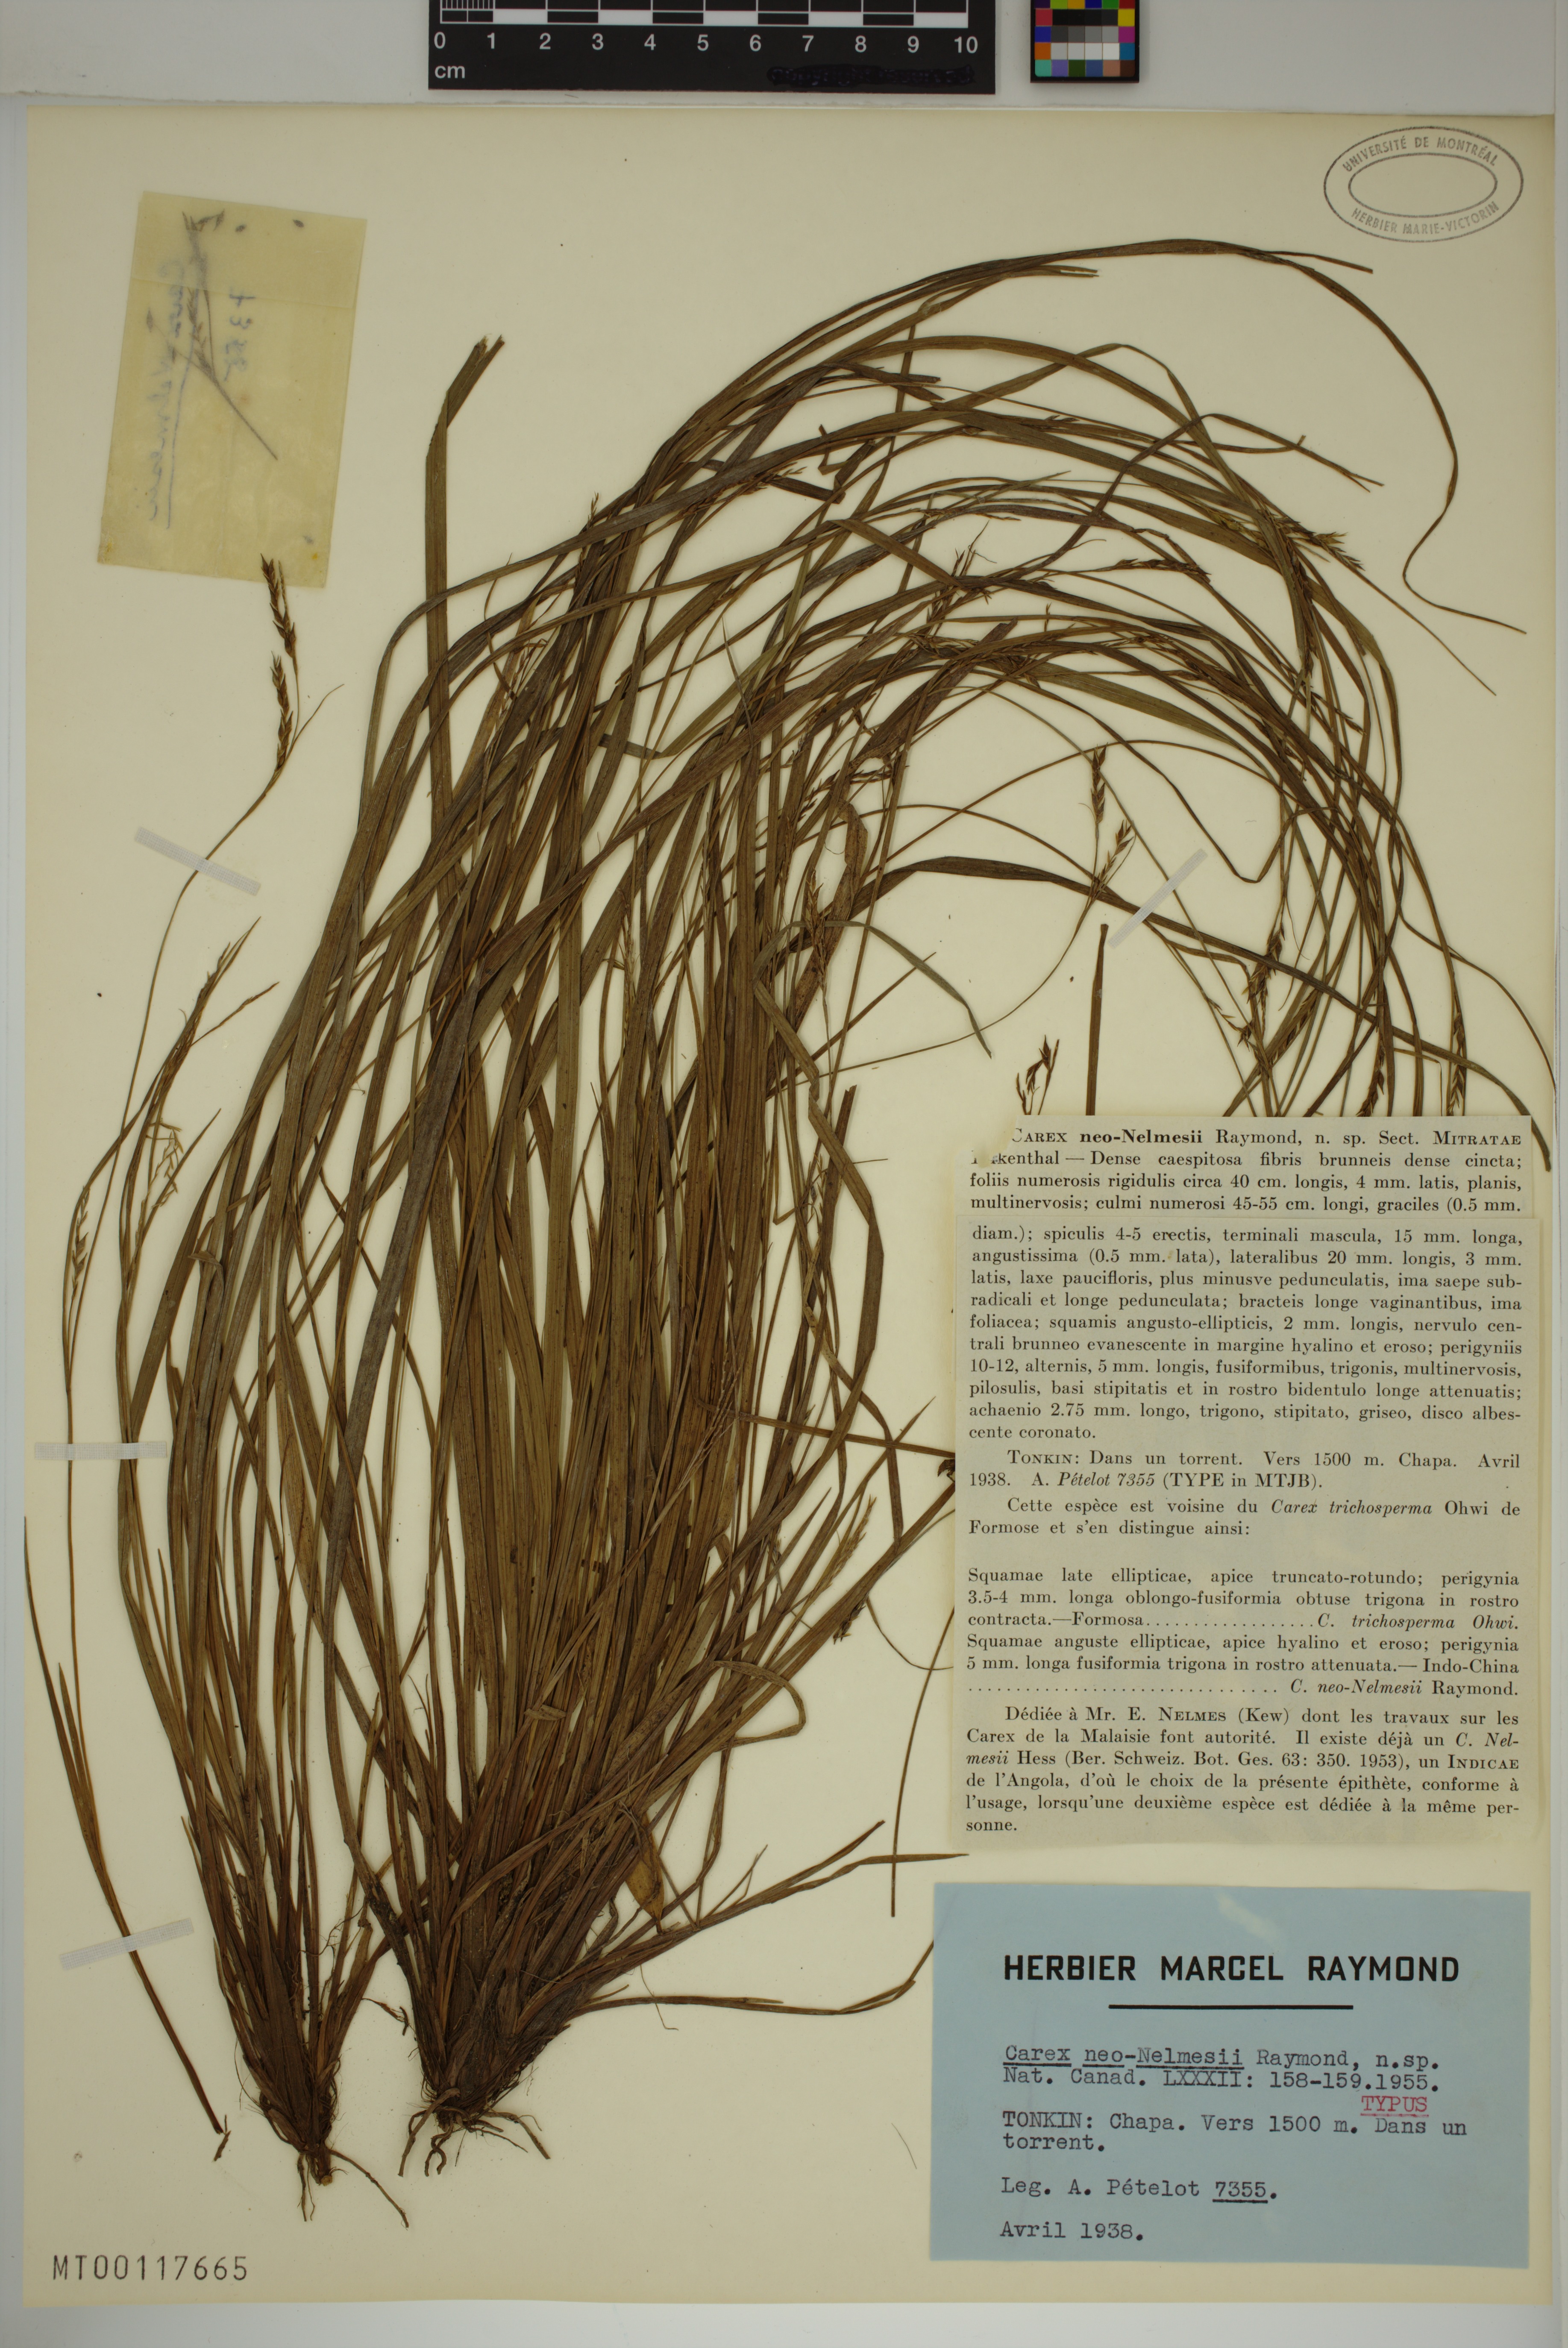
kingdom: Plantae
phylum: Tracheophyta
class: Liliopsida
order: Poales
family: Cyperaceae
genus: Carex
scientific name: Carex neonelmesii
